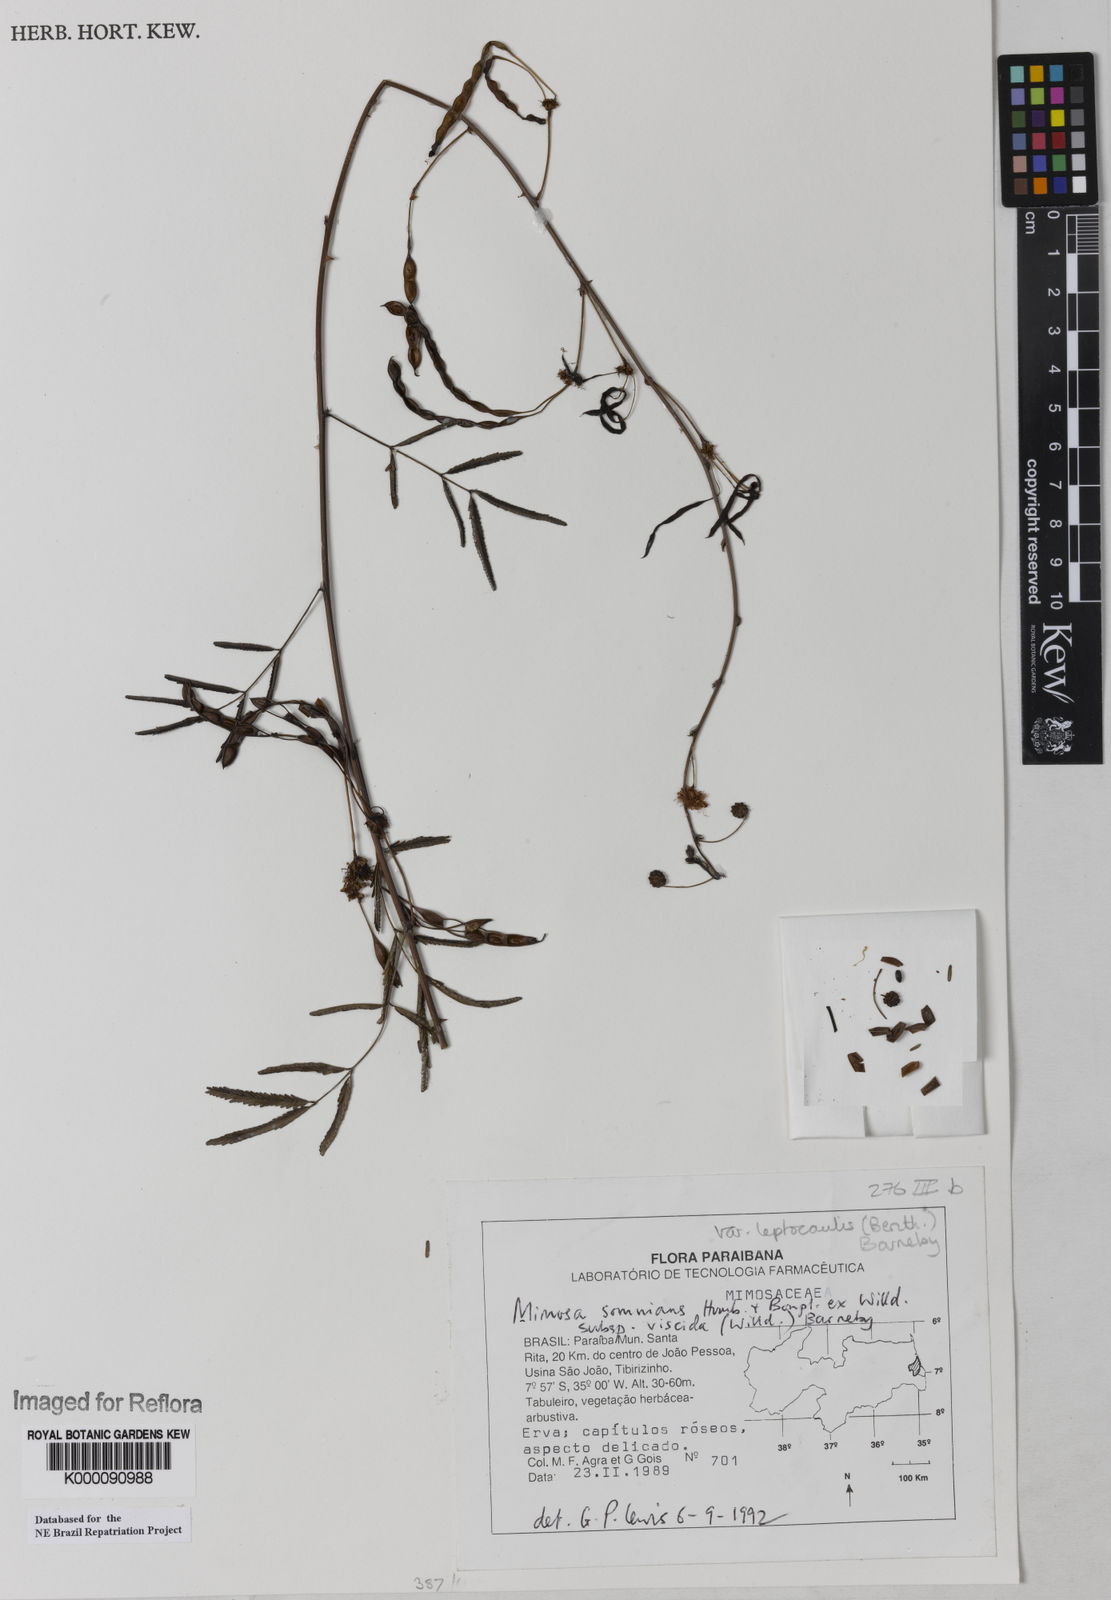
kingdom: Plantae
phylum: Tracheophyta
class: Magnoliopsida
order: Fabales
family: Fabaceae
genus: Mimosa
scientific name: Mimosa somnians
